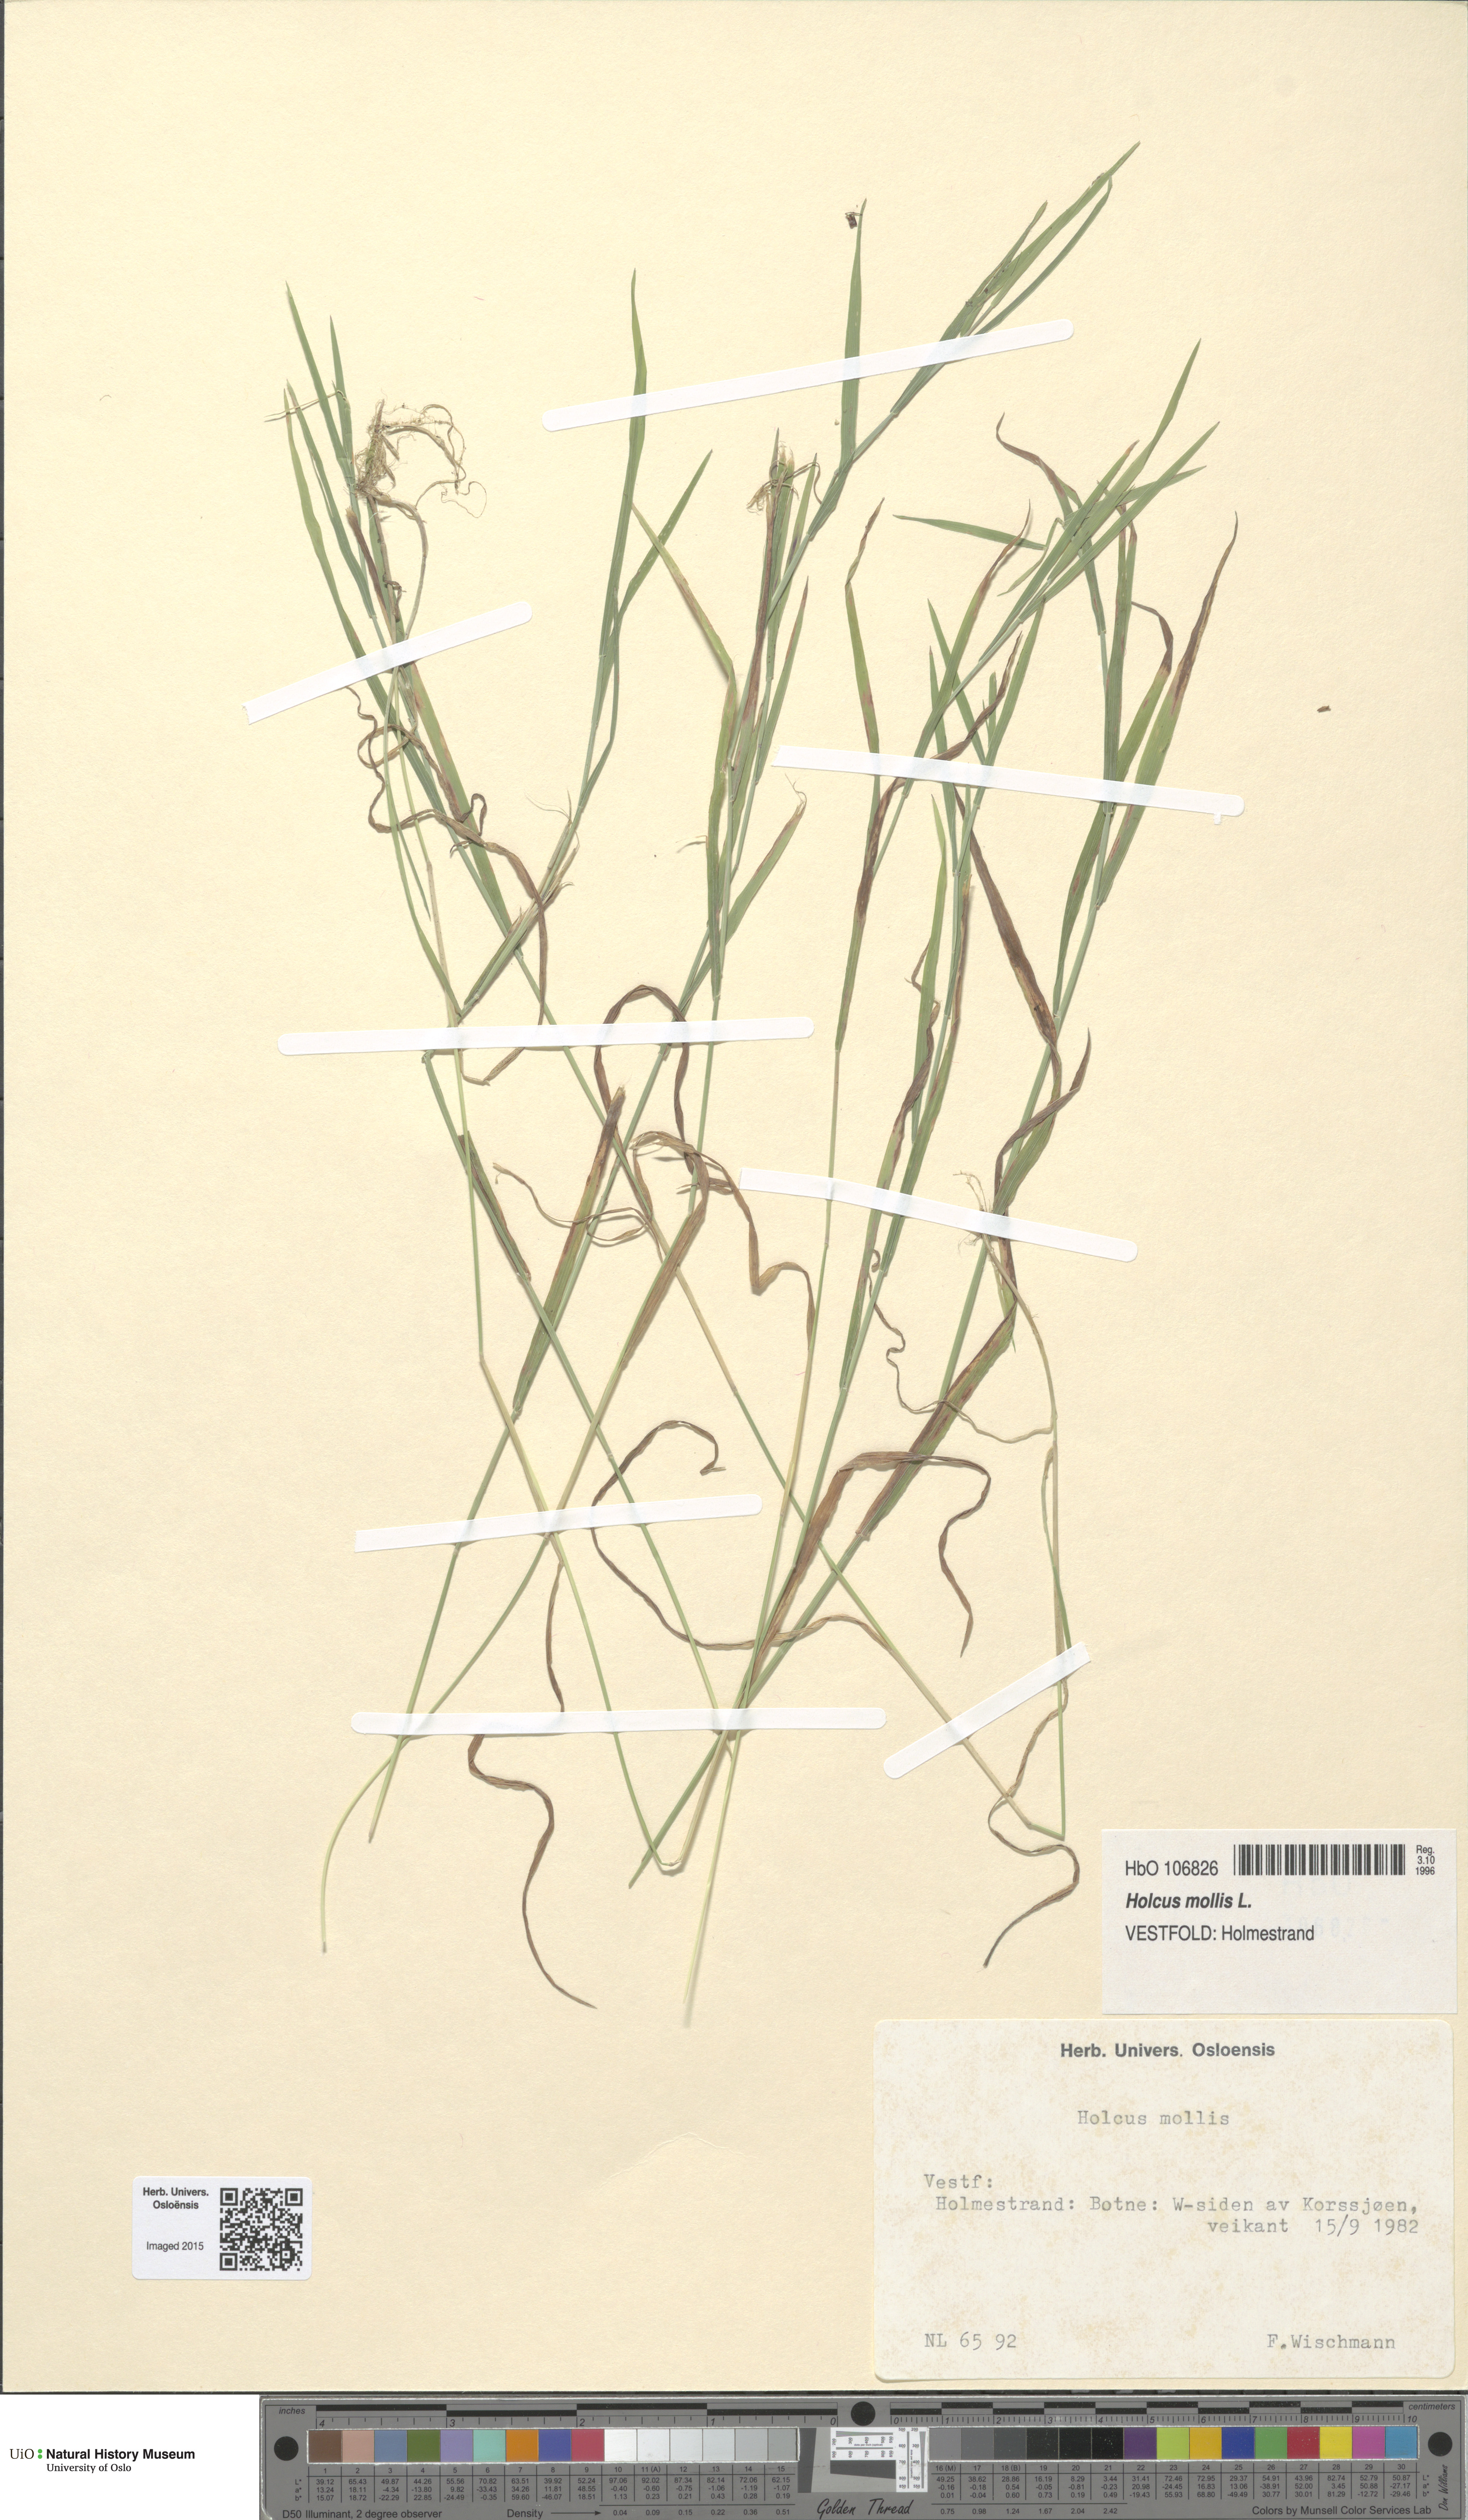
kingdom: Plantae
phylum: Tracheophyta
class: Liliopsida
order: Poales
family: Poaceae
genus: Holcus
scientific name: Holcus mollis
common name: Creeping velvetgrass
